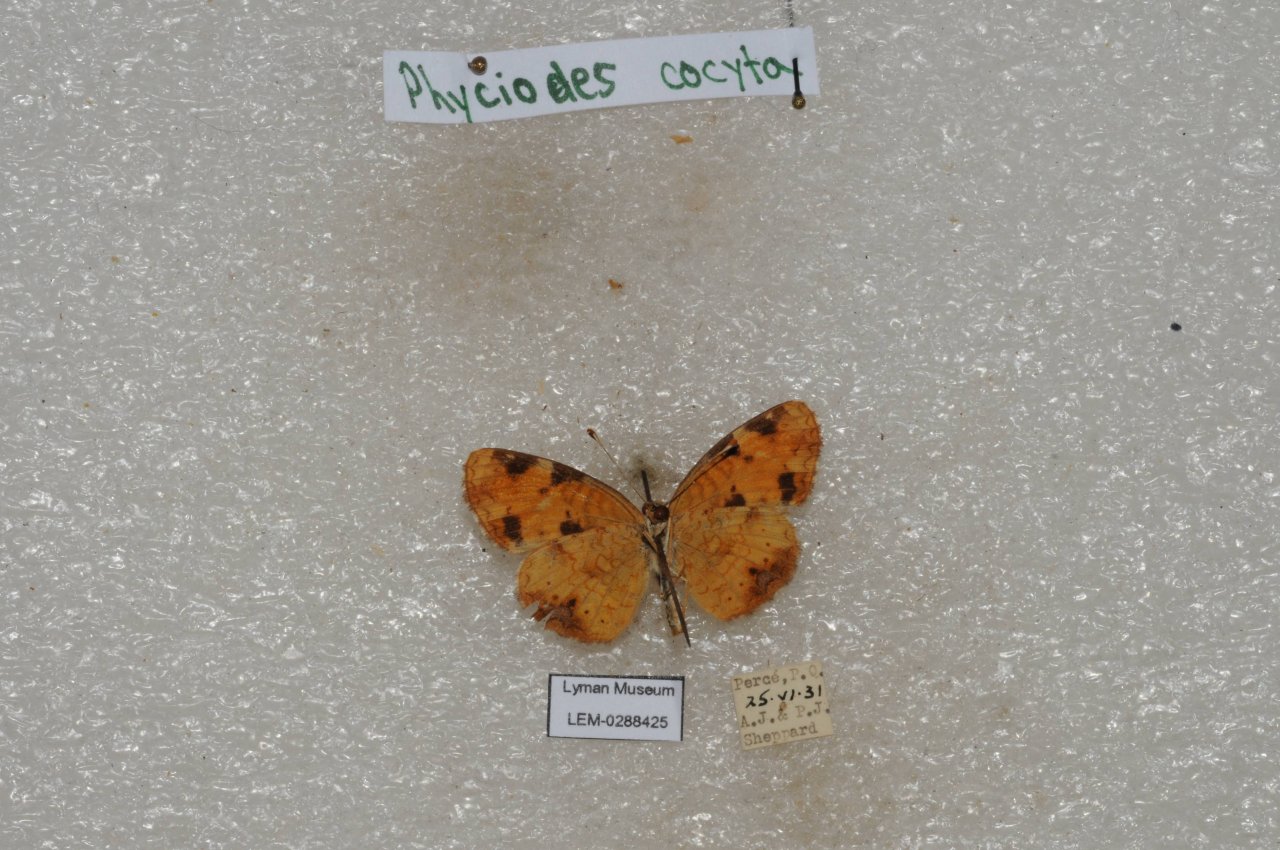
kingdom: Animalia
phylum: Arthropoda
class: Insecta
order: Lepidoptera
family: Nymphalidae
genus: Phyciodes
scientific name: Phyciodes tharos
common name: Northern Crescent
